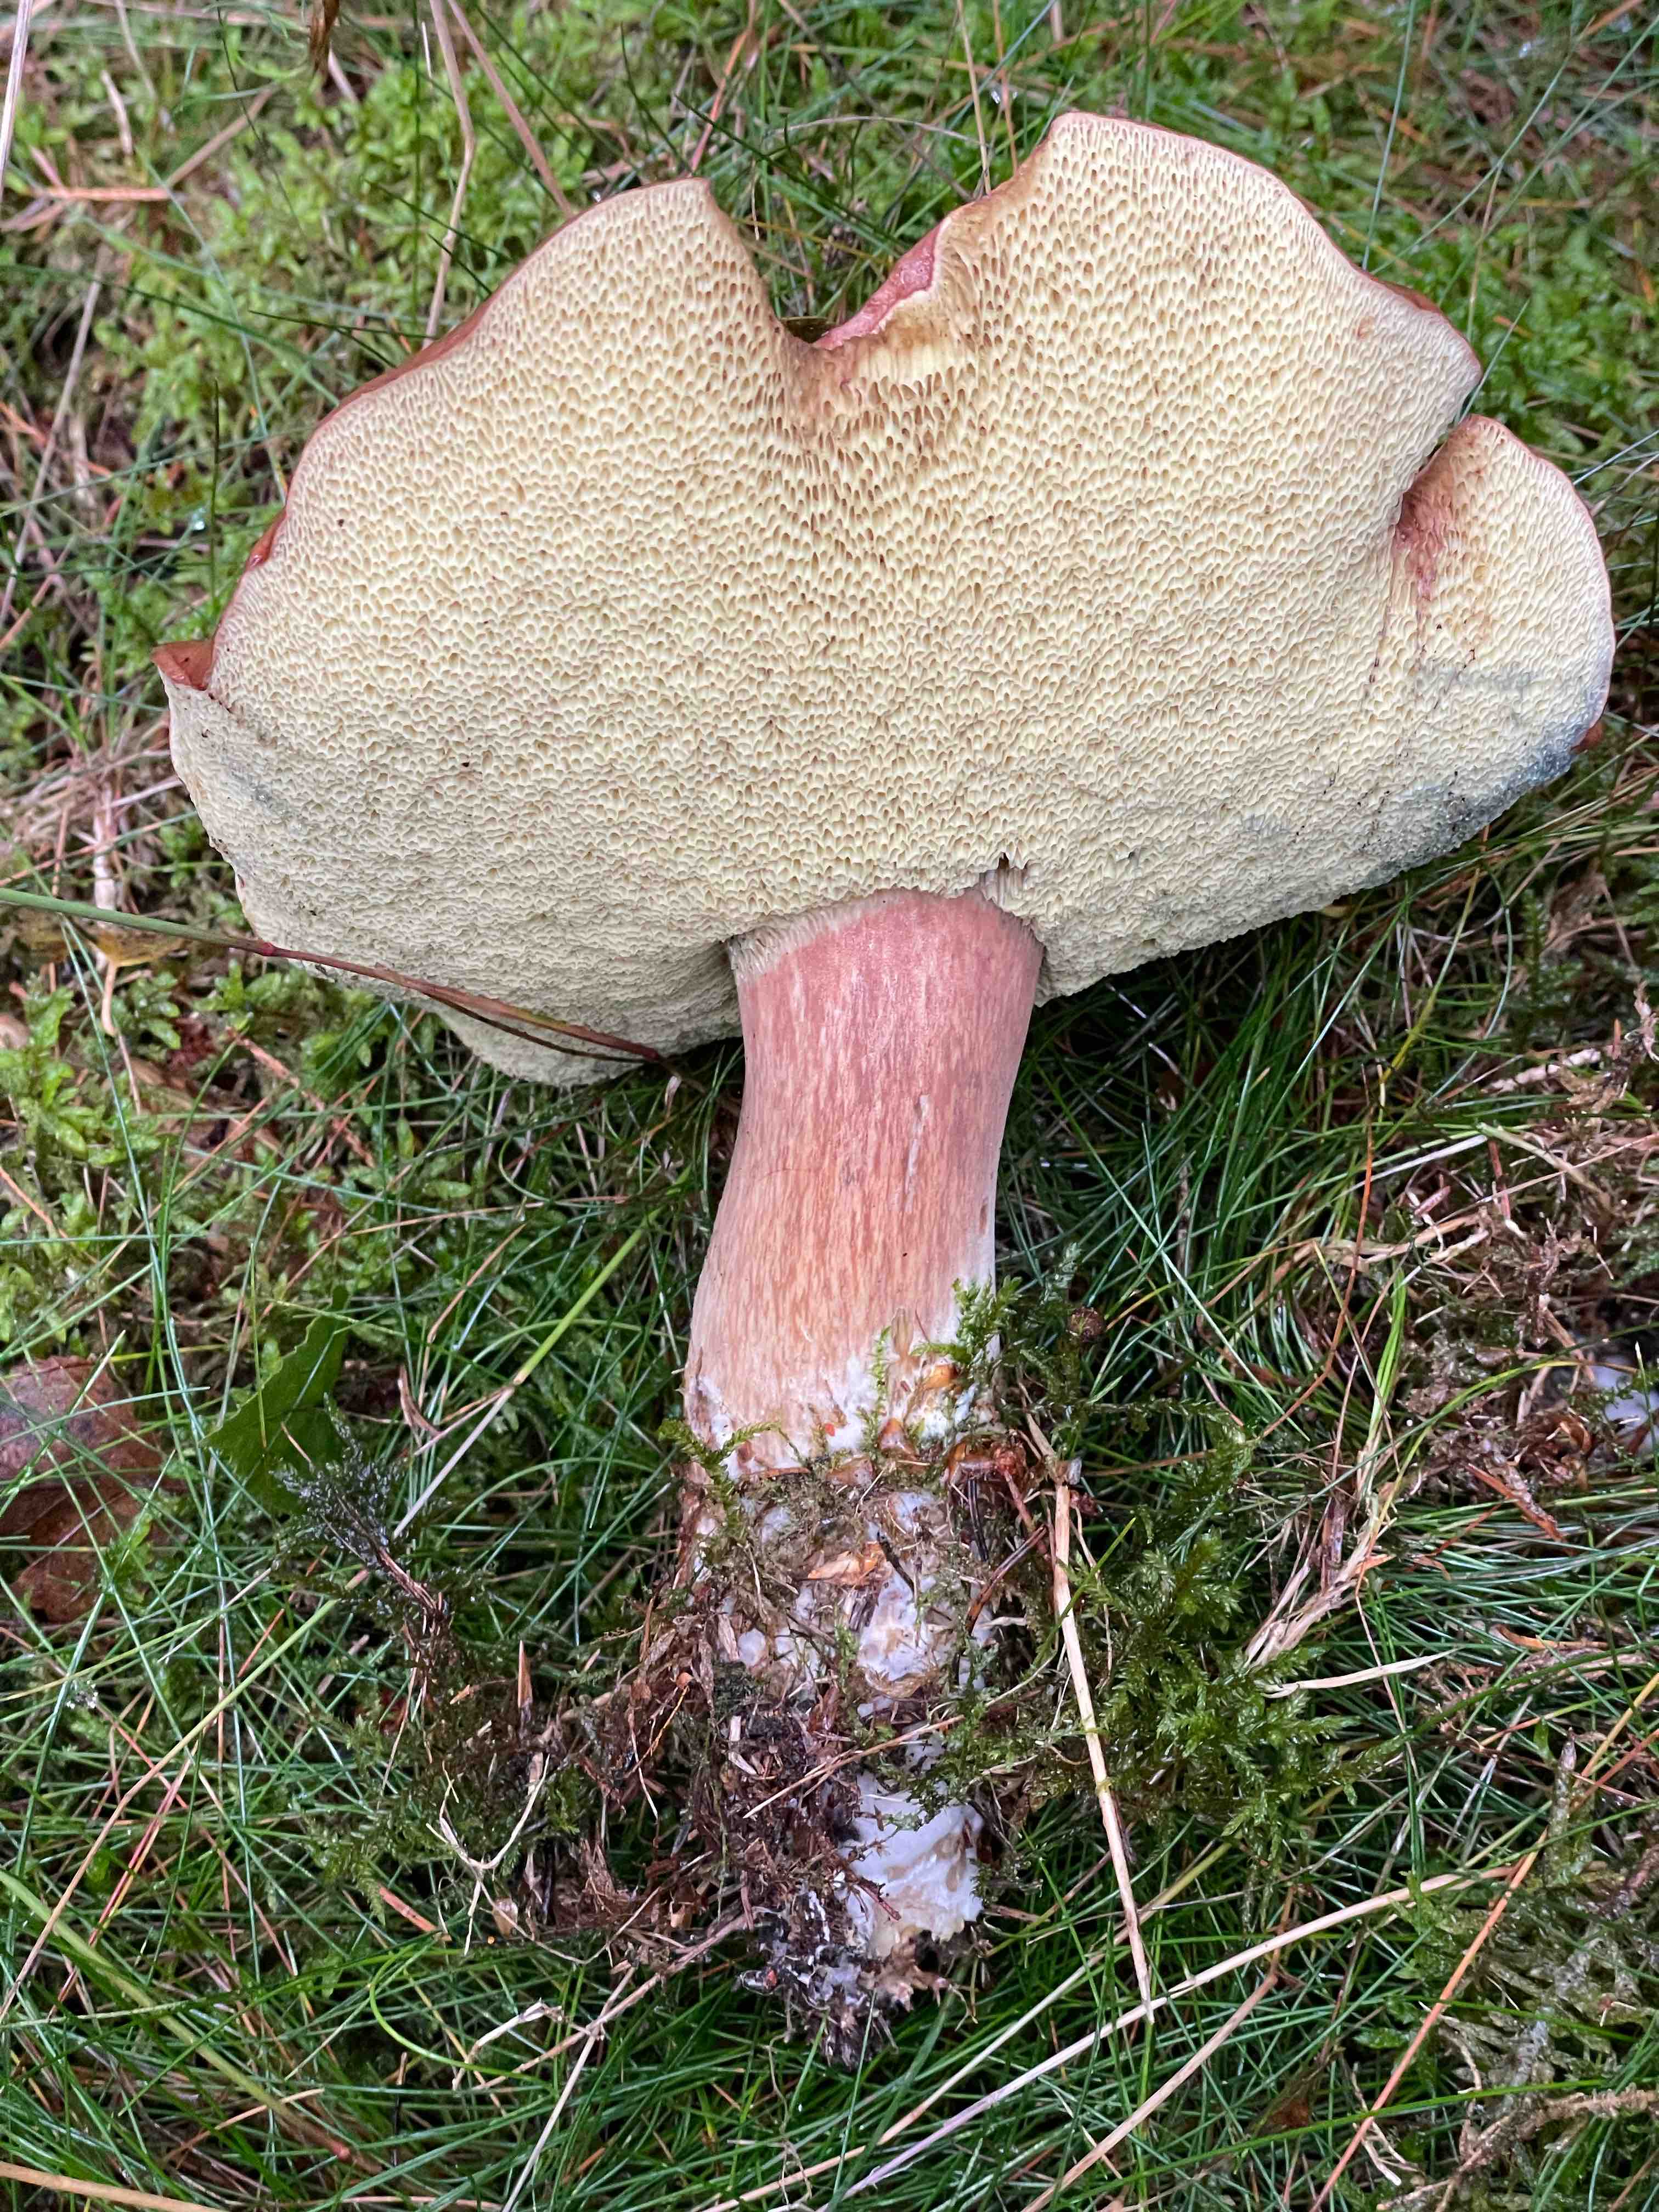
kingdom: Fungi
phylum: Basidiomycota
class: Agaricomycetes
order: Boletales
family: Boletaceae
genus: Imleria
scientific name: Imleria badia
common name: brunstokket rørhat
